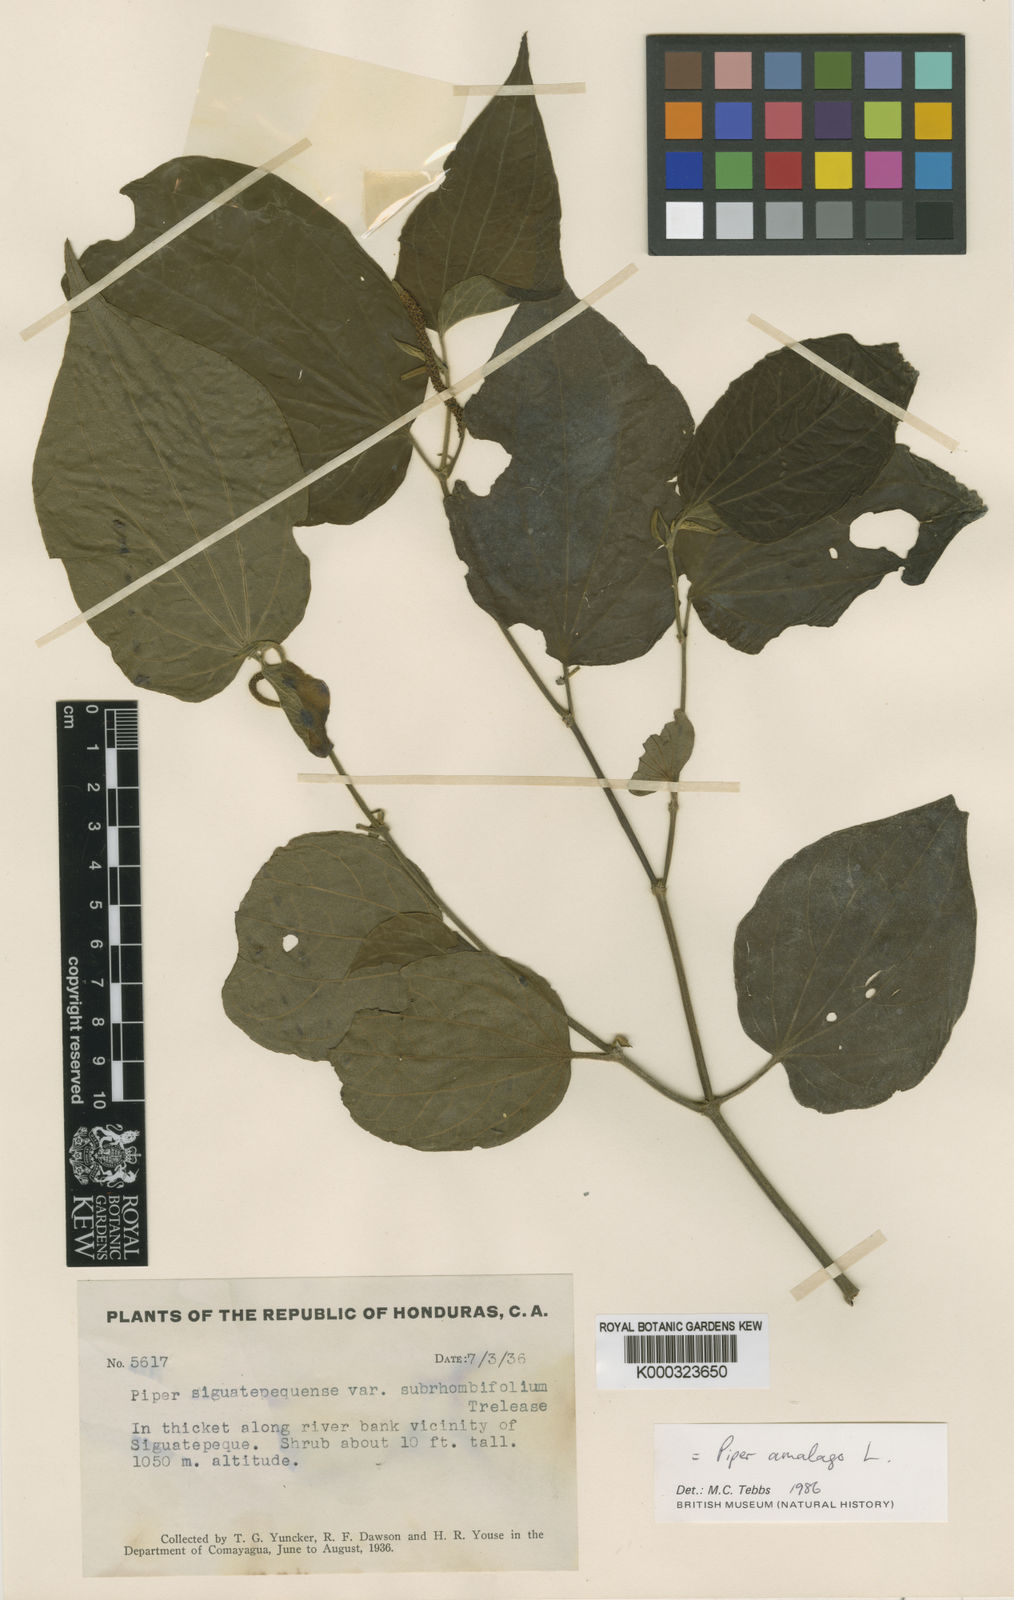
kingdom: Plantae
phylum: Tracheophyta
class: Magnoliopsida
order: Piperales
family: Piperaceae
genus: Piper
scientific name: Piper martensianum
